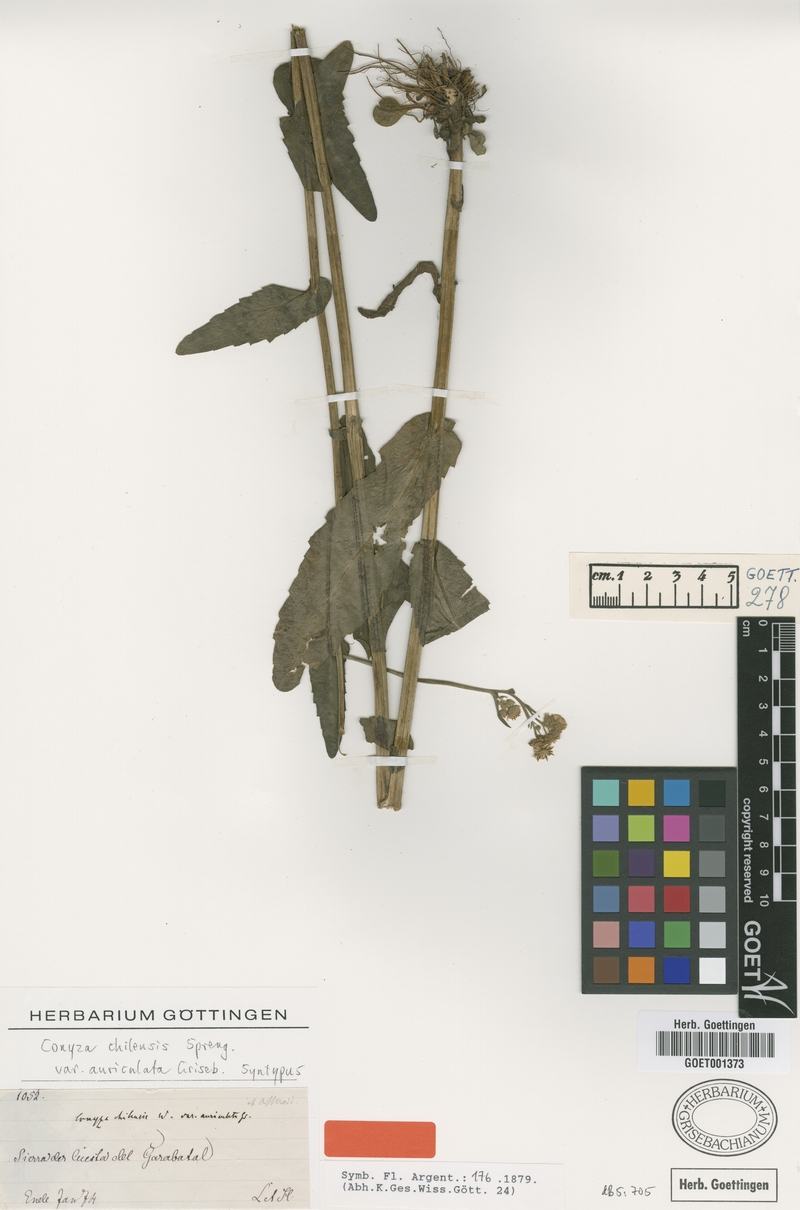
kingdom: Plantae
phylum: Tracheophyta
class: Magnoliopsida
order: Asterales
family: Asteraceae
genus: Erigeron
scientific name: Erigeron primulifolius
